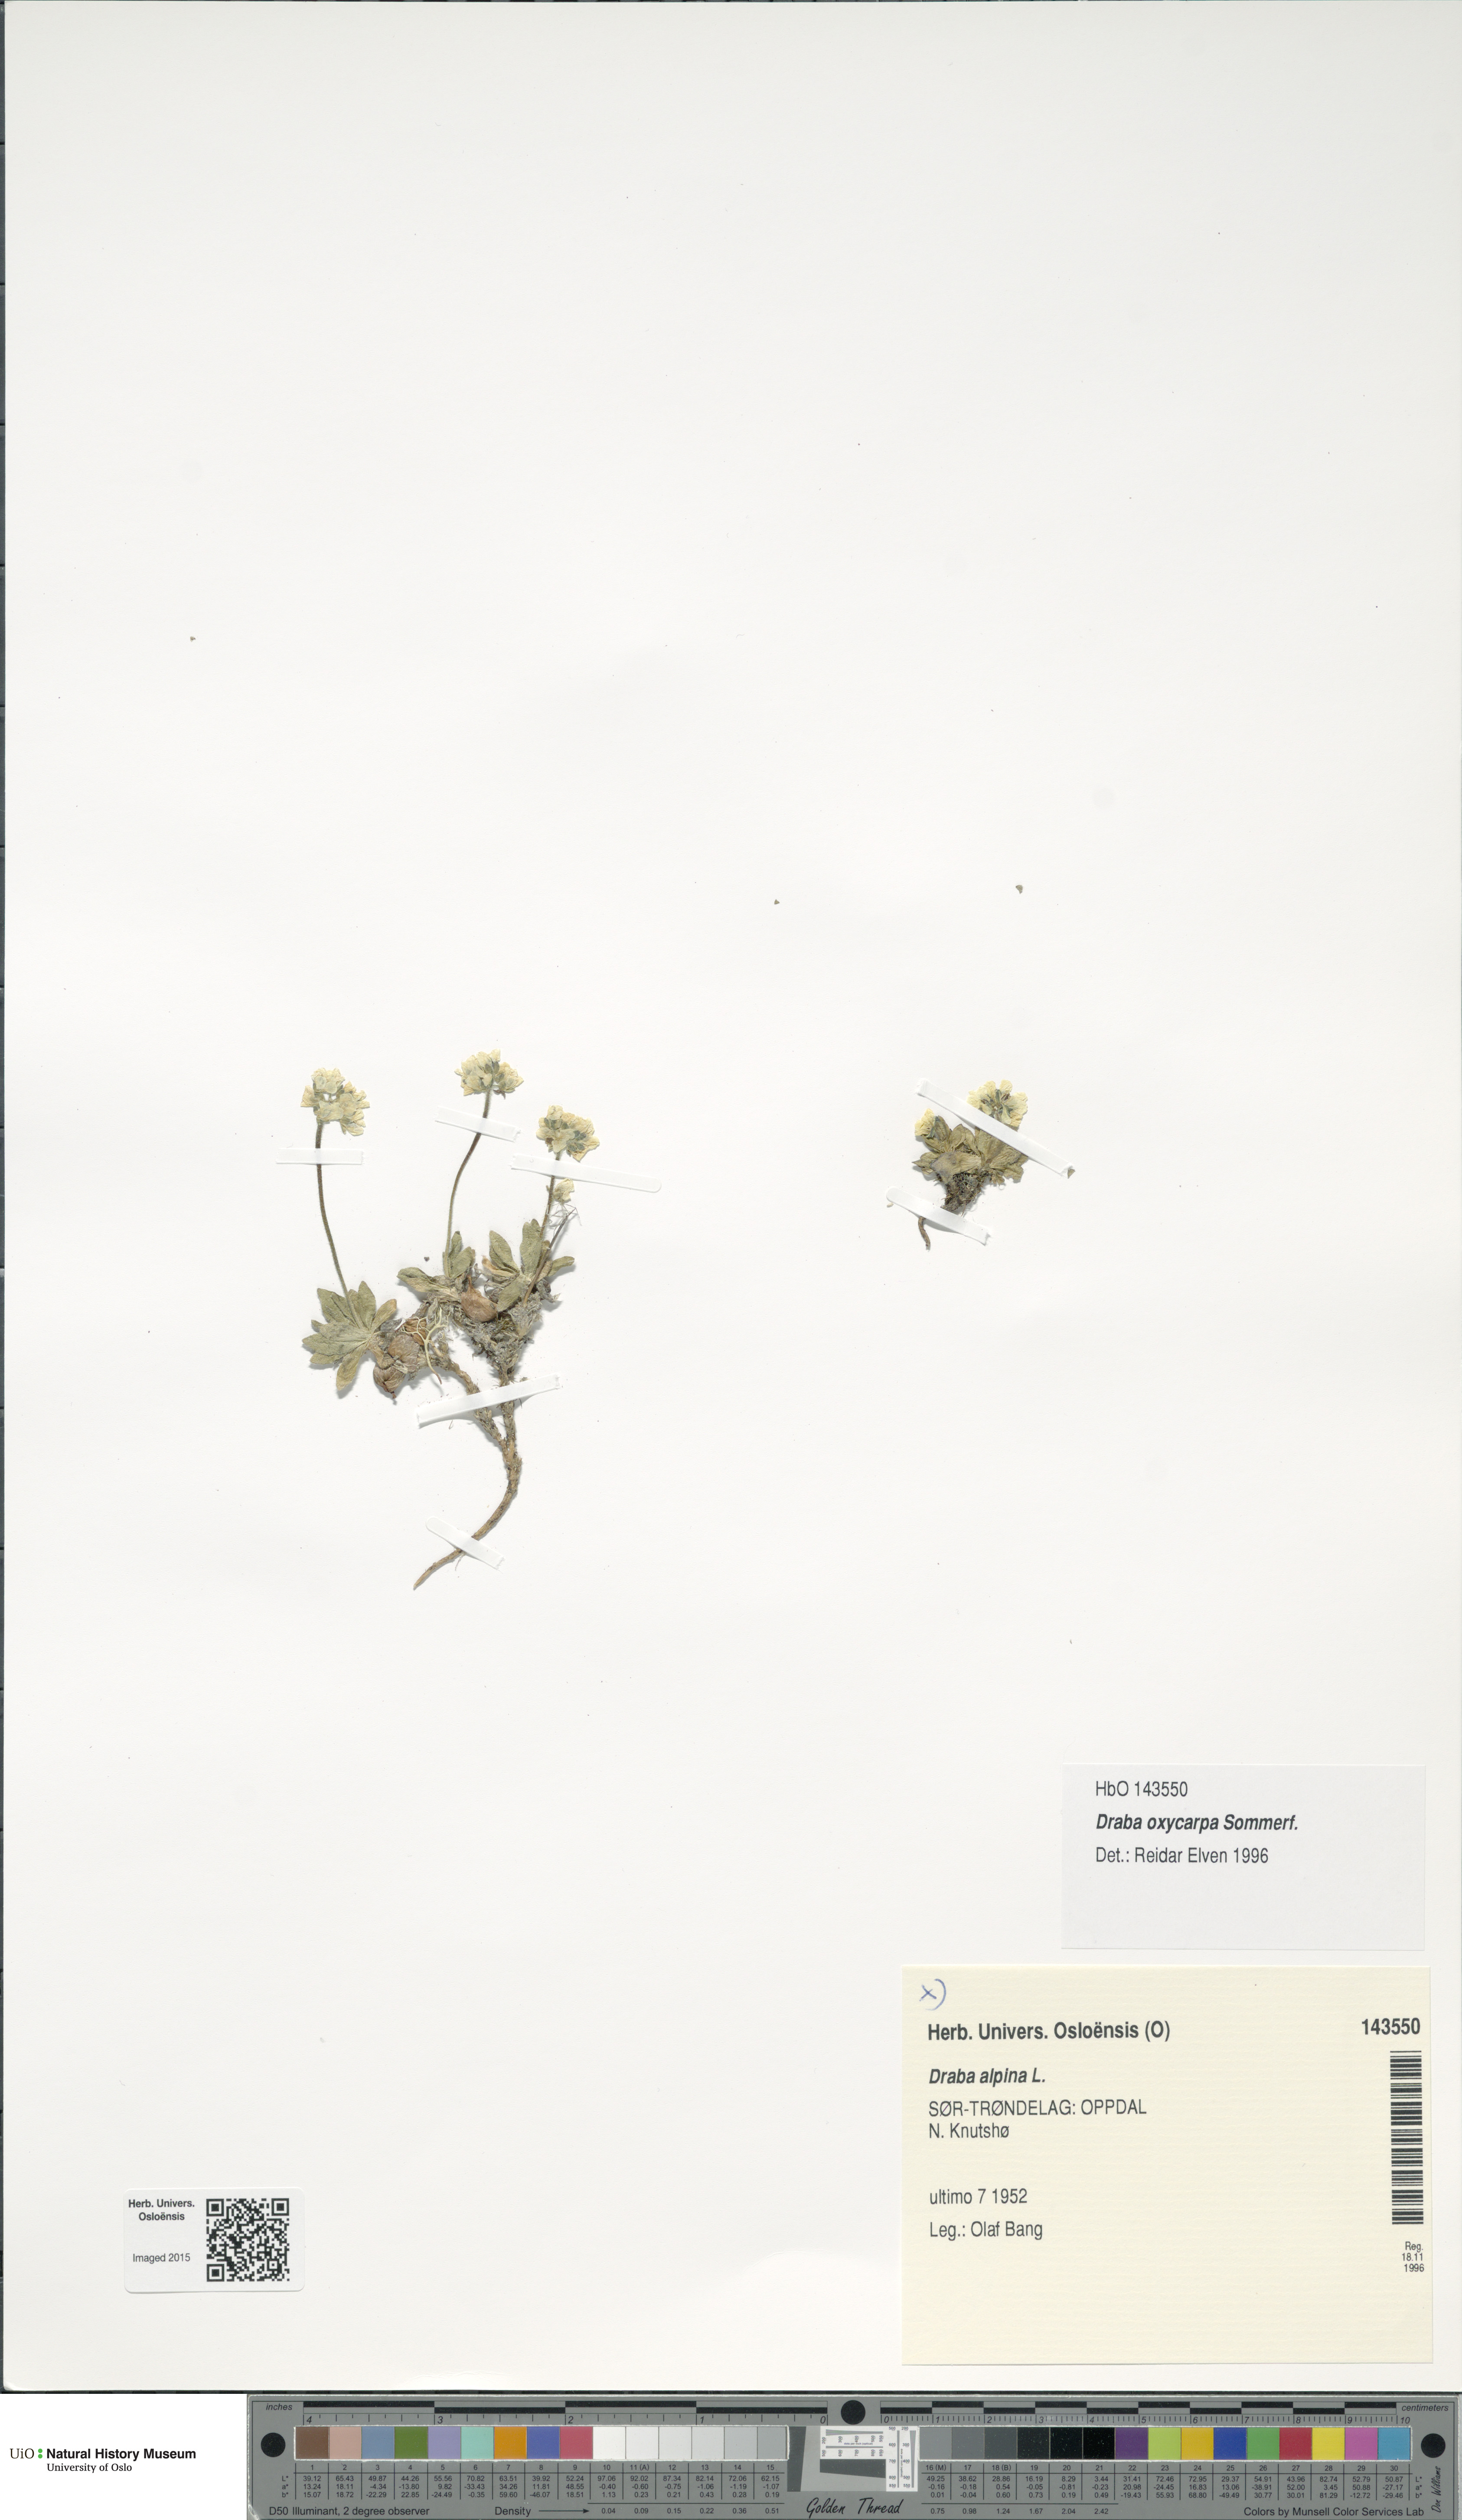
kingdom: Plantae
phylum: Tracheophyta
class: Magnoliopsida
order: Brassicales
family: Brassicaceae
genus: Draba
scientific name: Draba oxycarpa
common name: Sharp-fruited whitlow-grass
